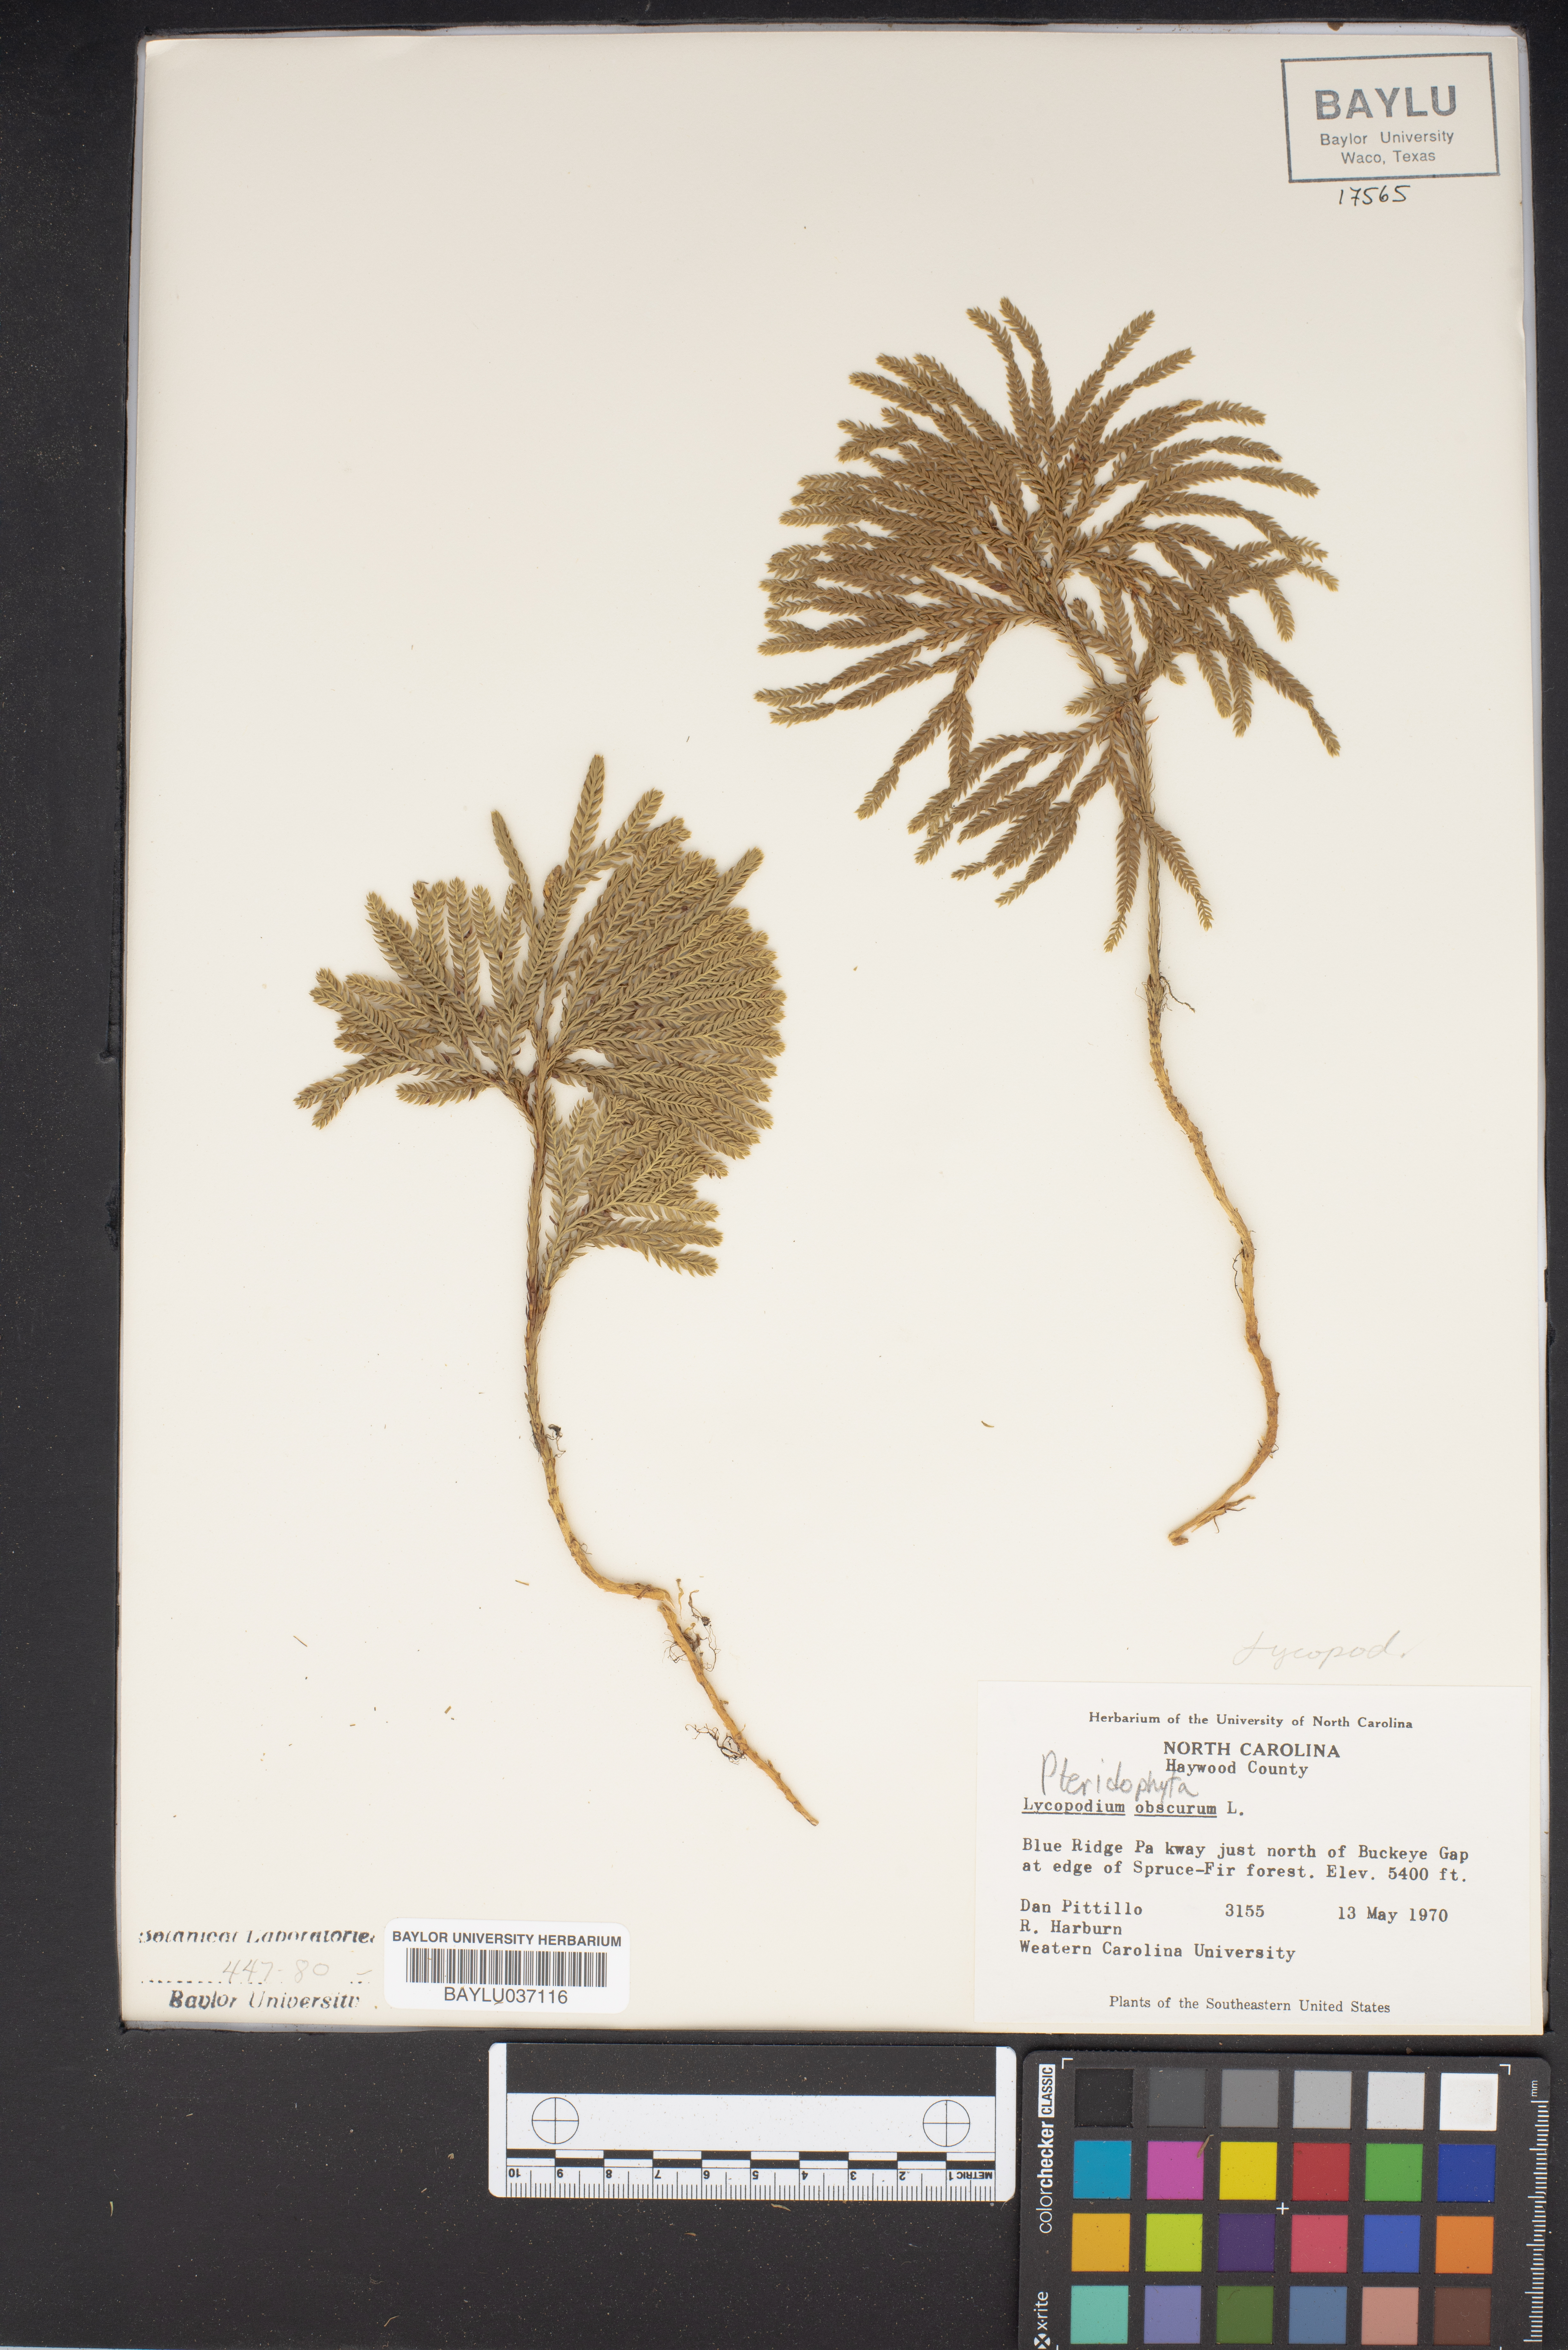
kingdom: Plantae
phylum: Tracheophyta
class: Lycopodiopsida
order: Lycopodiales
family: Lycopodiaceae
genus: Dendrolycopodium
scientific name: Dendrolycopodium obscurum
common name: Common ground-pine
